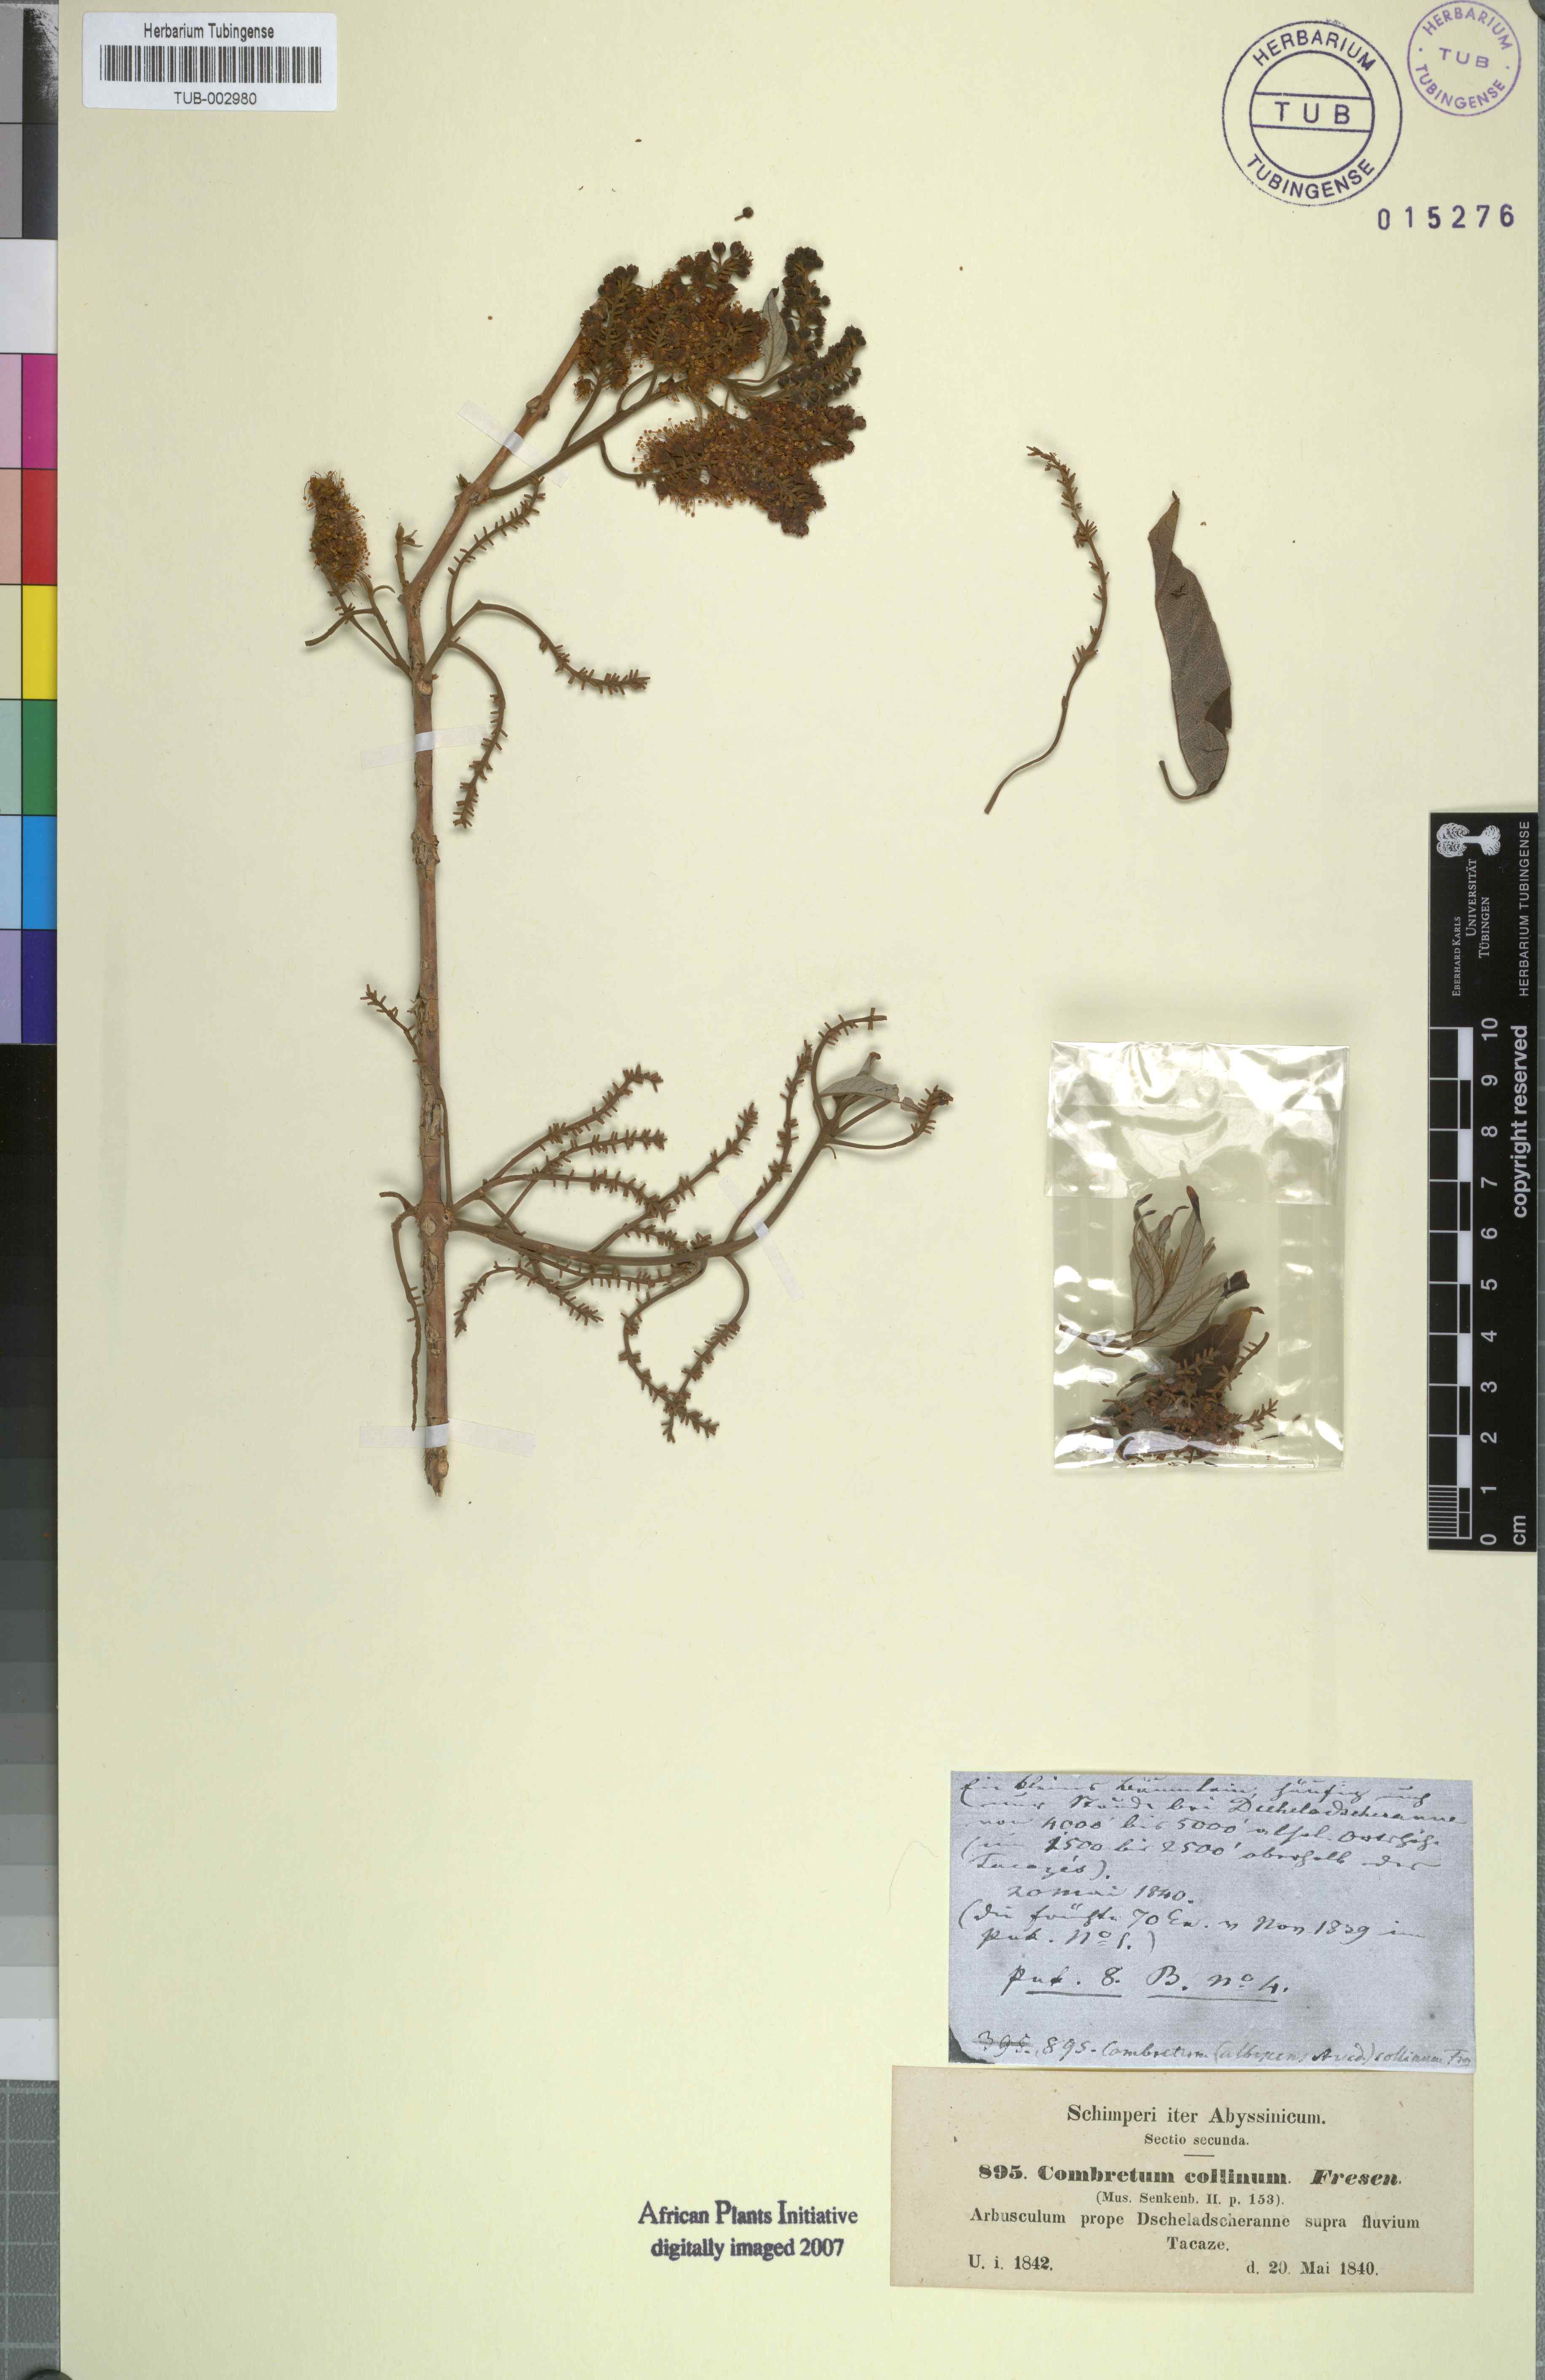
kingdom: Plantae
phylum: Tracheophyta
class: Magnoliopsida
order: Myrtales
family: Combretaceae
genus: Combretum
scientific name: Combretum collinum
